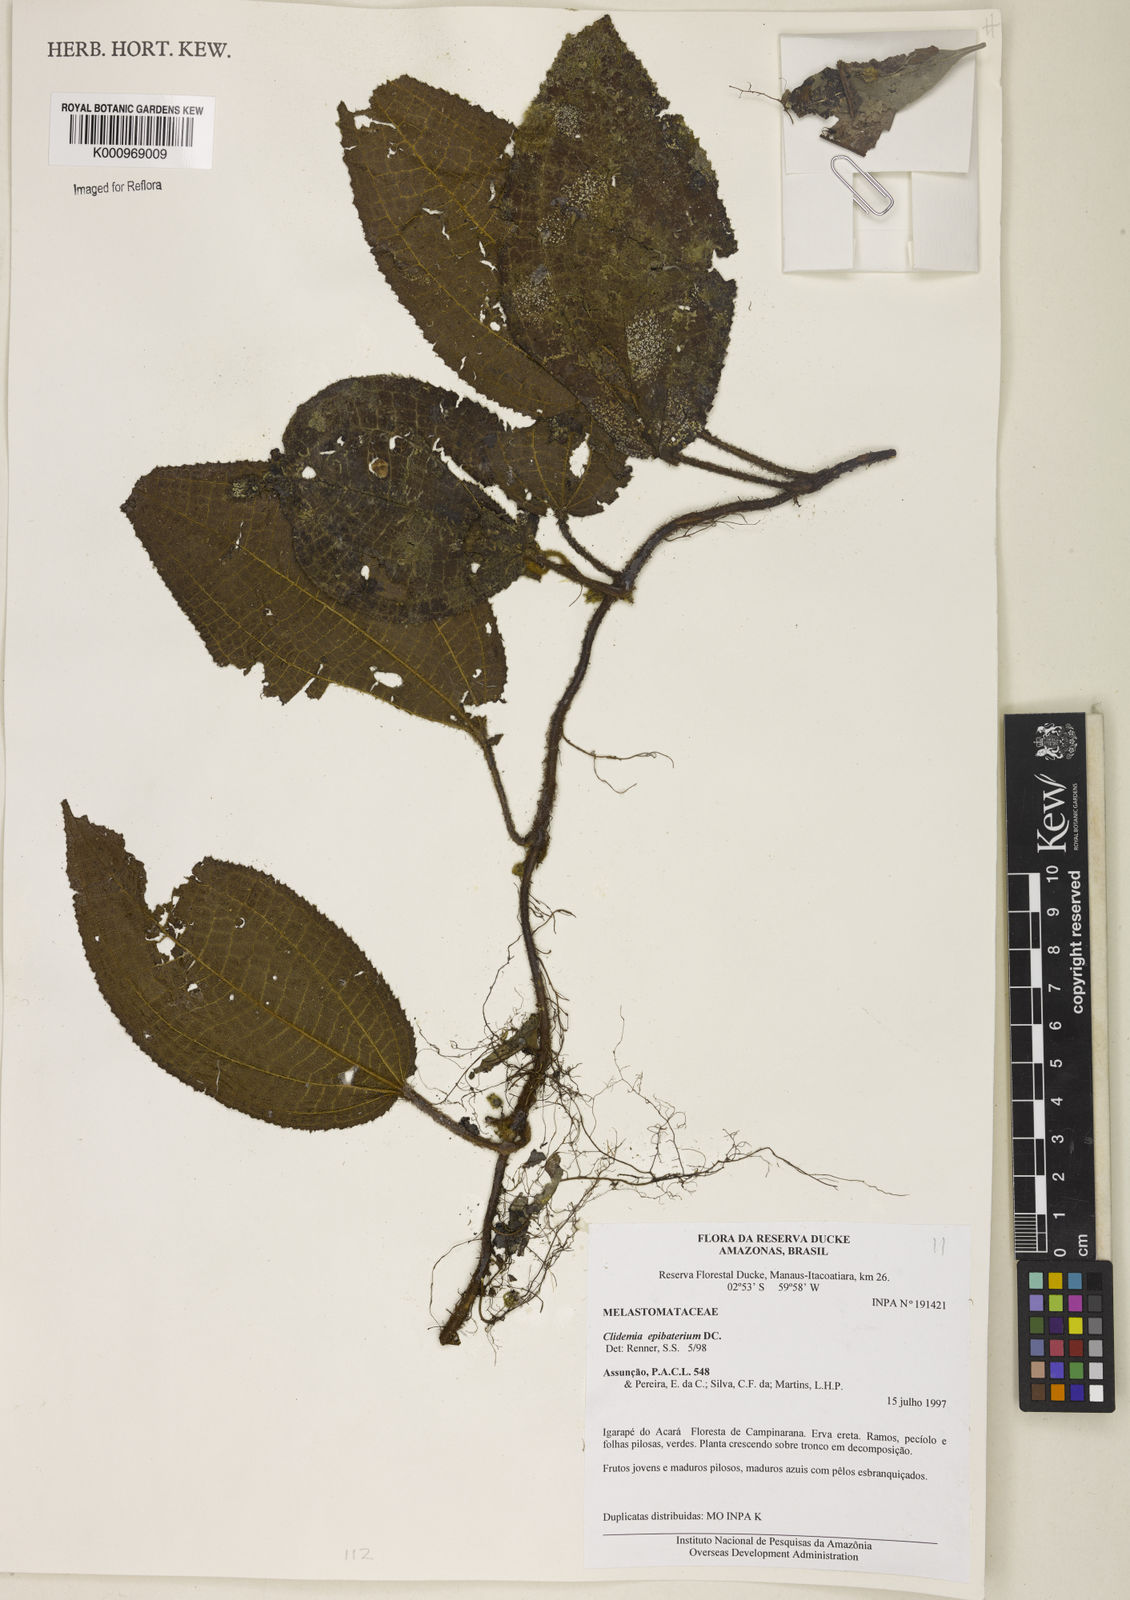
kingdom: Plantae
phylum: Tracheophyta
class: Magnoliopsida
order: Myrtales
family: Melastomataceae
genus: Miconia
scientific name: Miconia epibaterium
